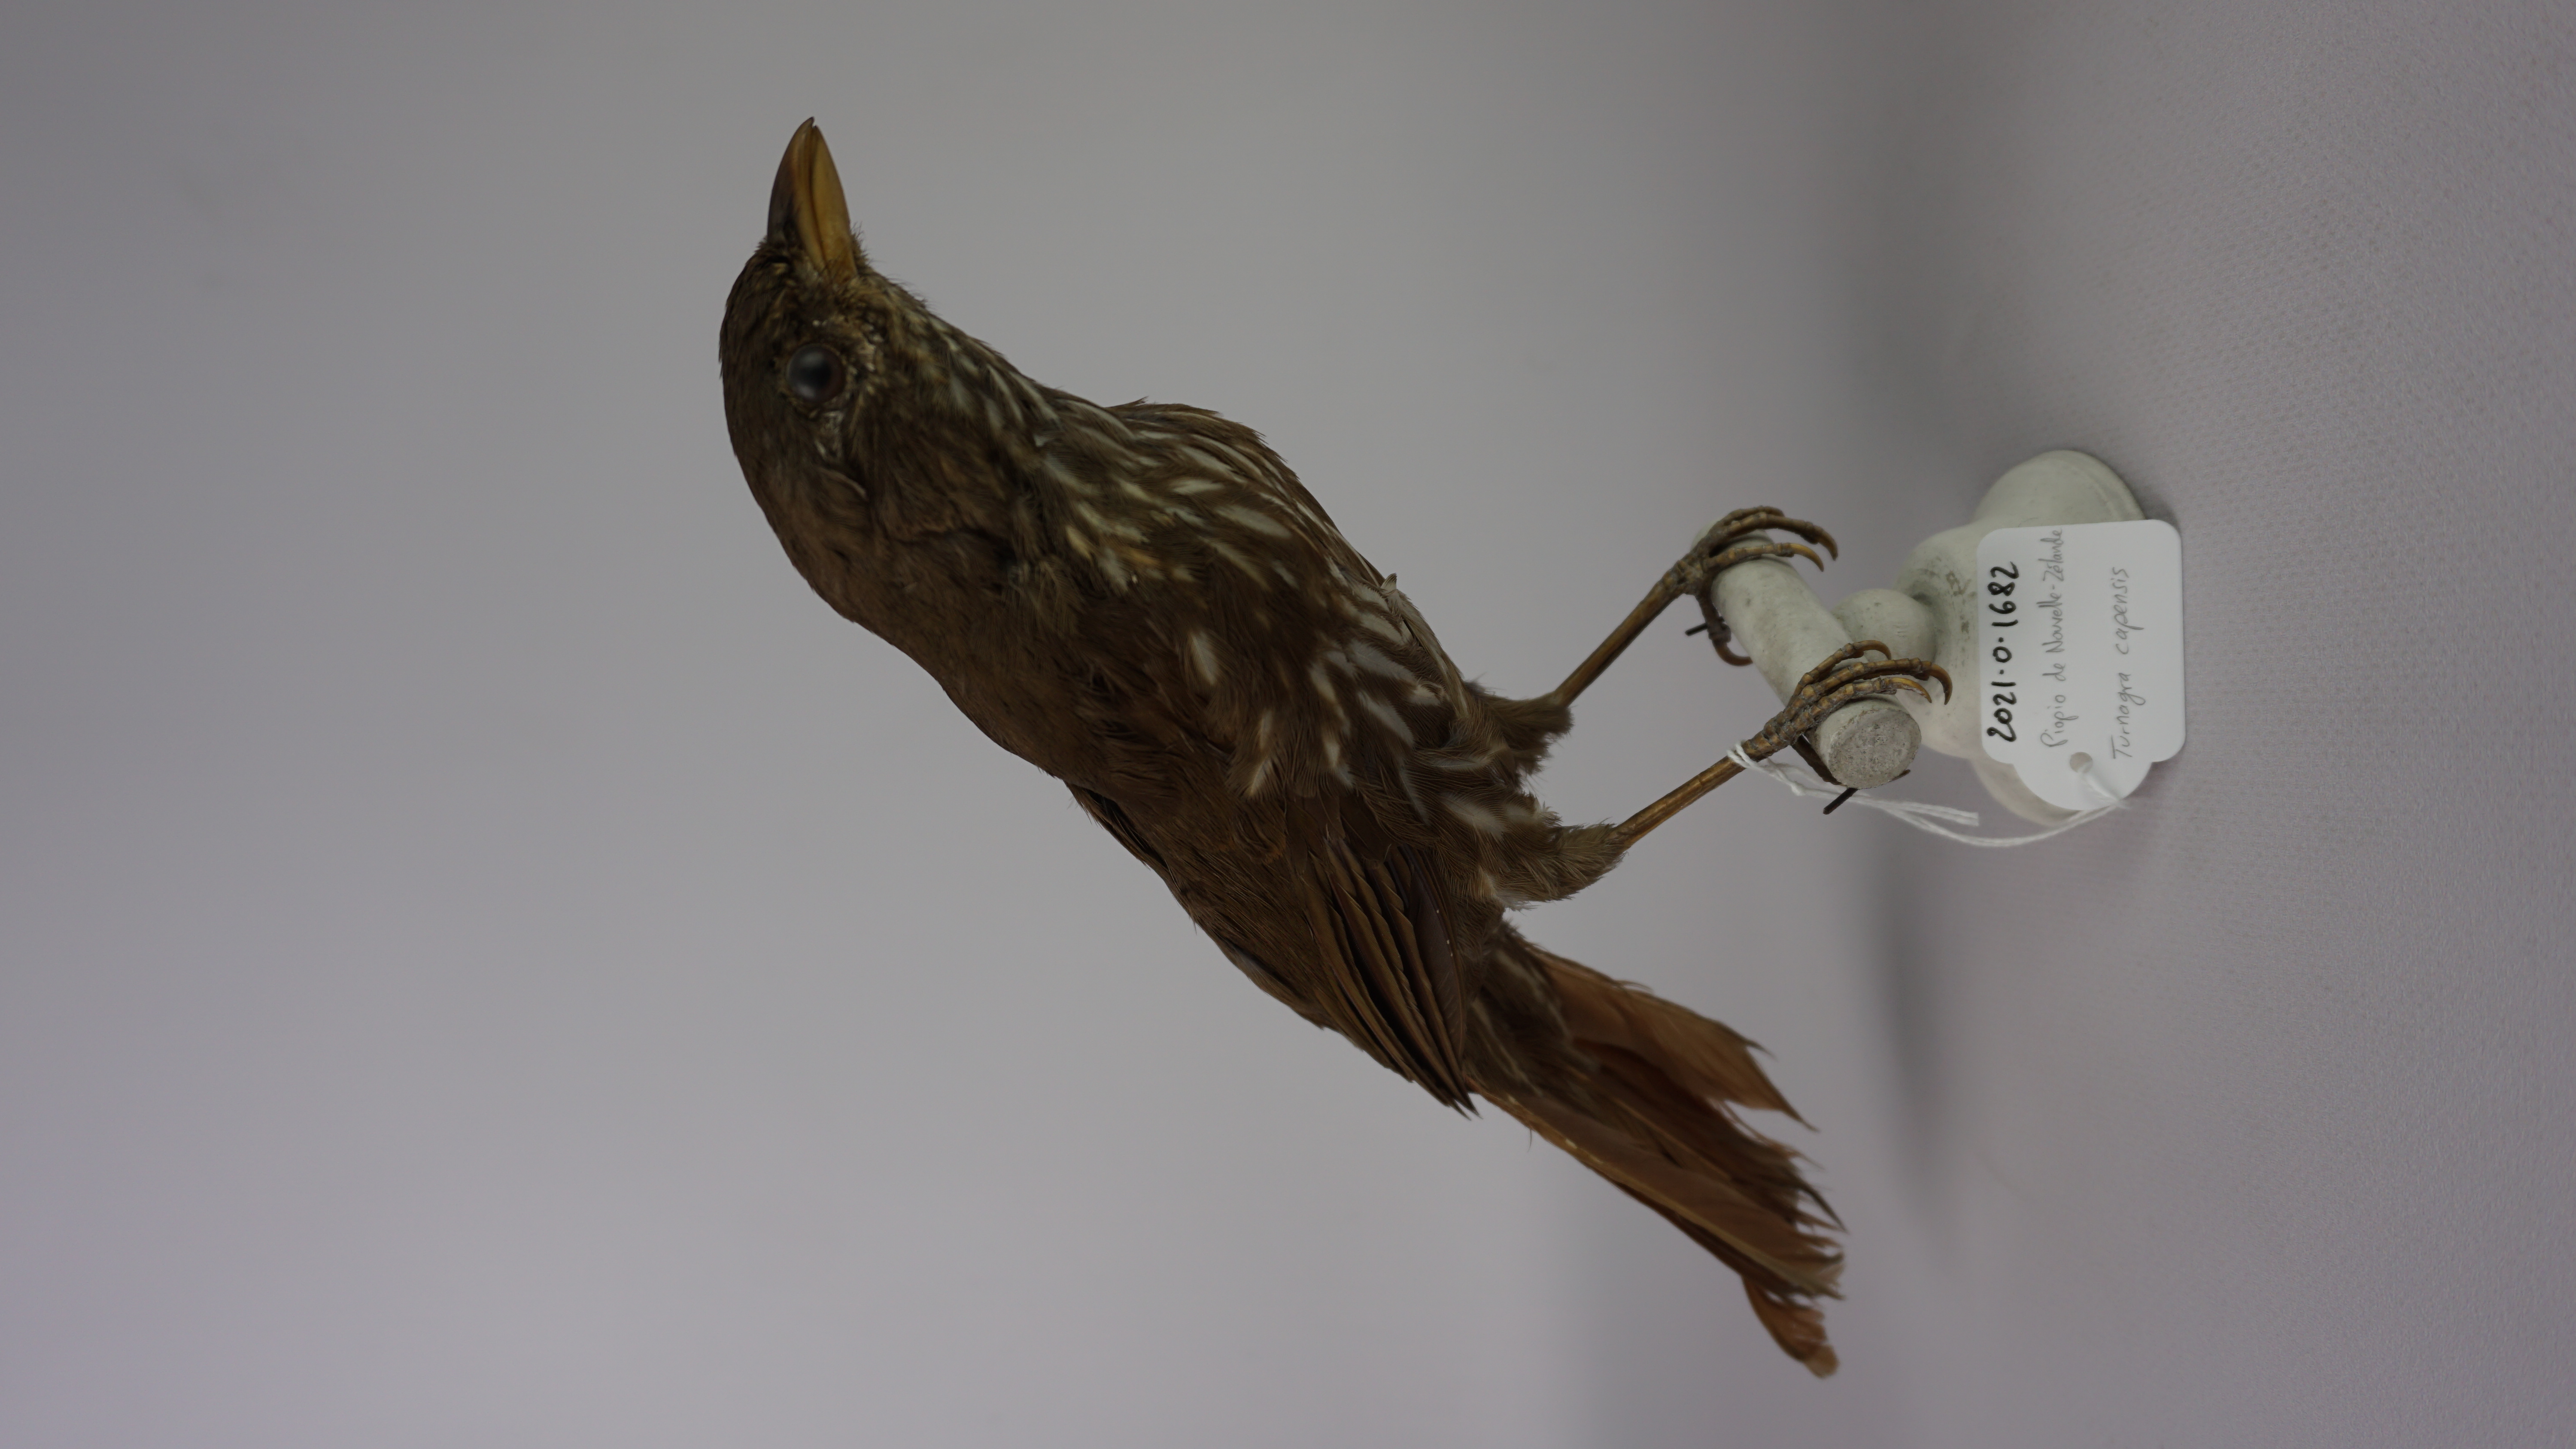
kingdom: Animalia
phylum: Chordata
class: Aves
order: Passeriformes
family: Ptilonorhynchidae
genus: Turnagra
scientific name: Turnagra capensis
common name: South island piopio
